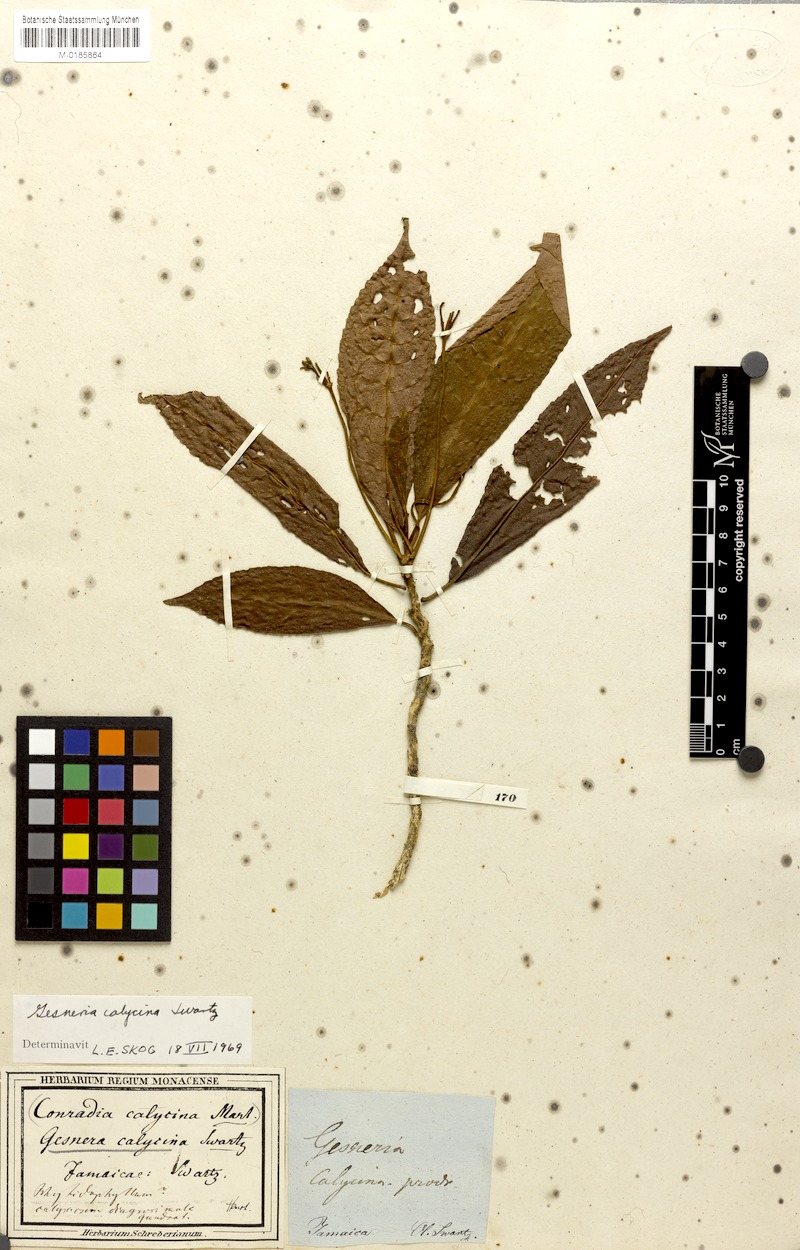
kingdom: Plantae
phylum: Tracheophyta
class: Magnoliopsida
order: Lamiales
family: Gesneriaceae
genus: Gesneria
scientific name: Gesneria calycina
